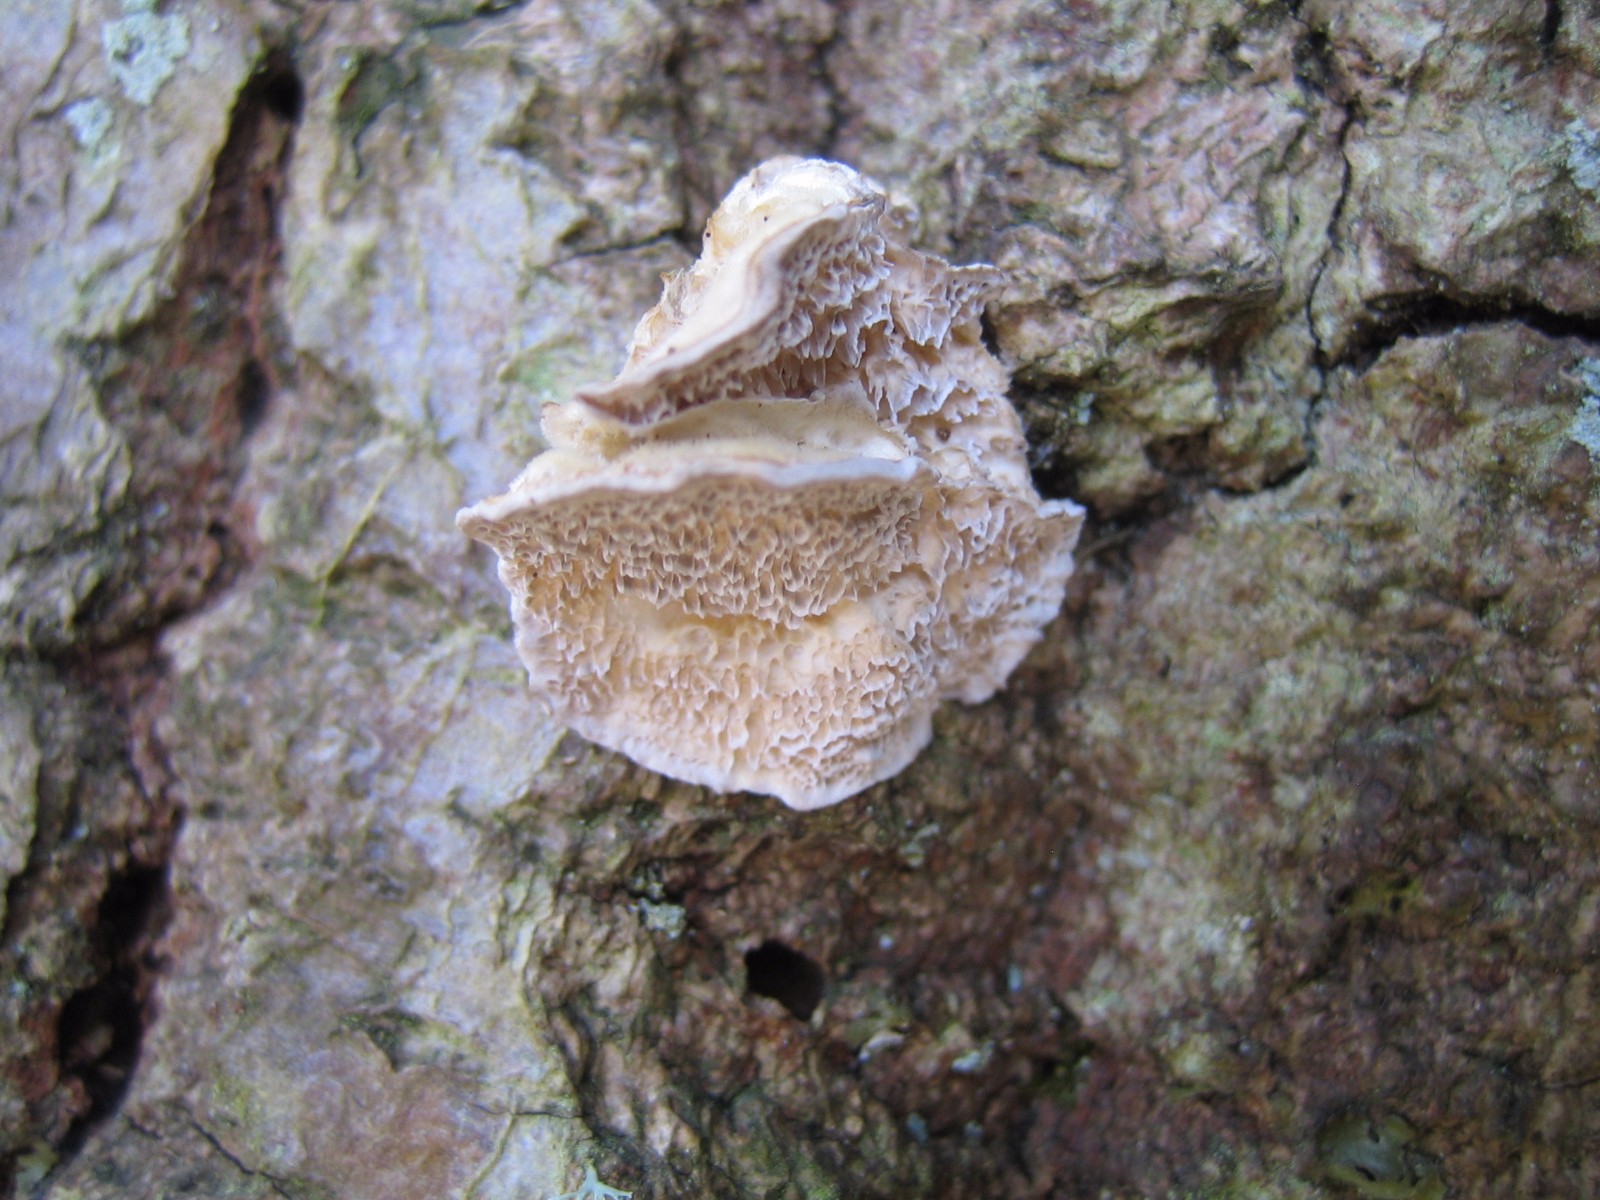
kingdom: Fungi
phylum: Basidiomycota
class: Agaricomycetes
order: Polyporales
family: Polyporaceae
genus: Trametes
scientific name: Trametes ochracea
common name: bæltet læderporesvamp
